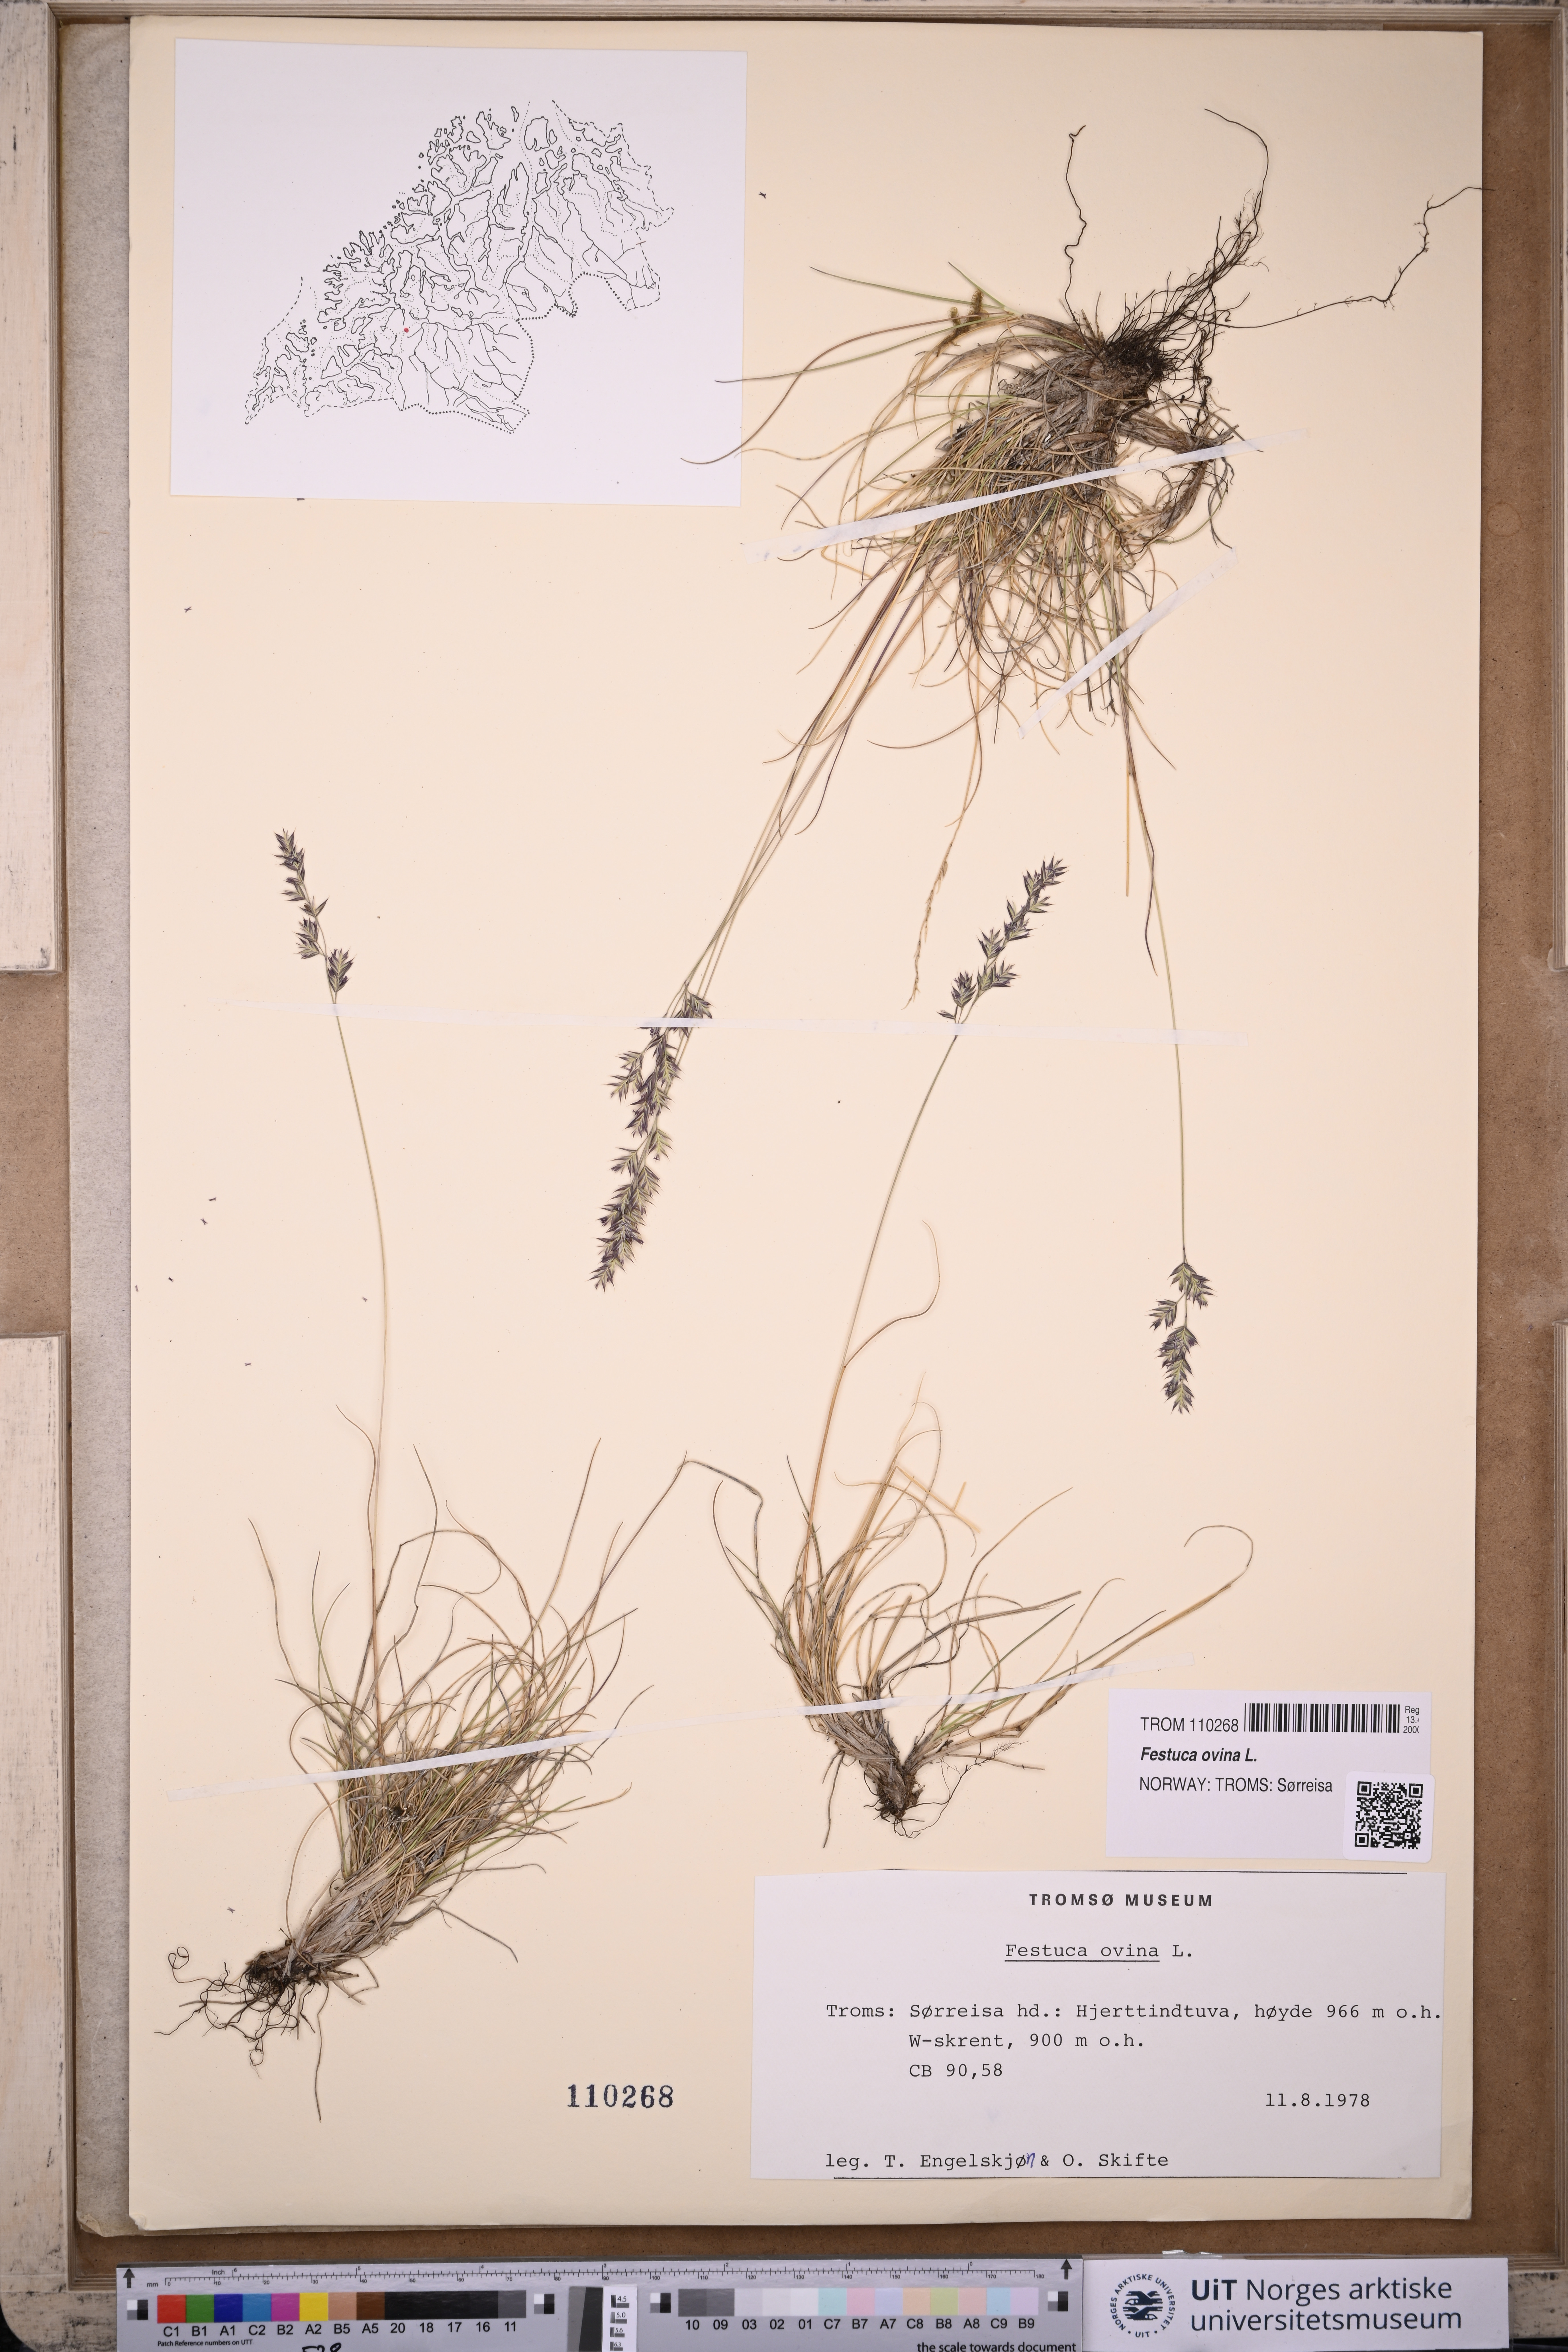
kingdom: Plantae
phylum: Tracheophyta
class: Liliopsida
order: Poales
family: Poaceae
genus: Festuca
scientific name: Festuca ovina
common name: Sheep fescue
